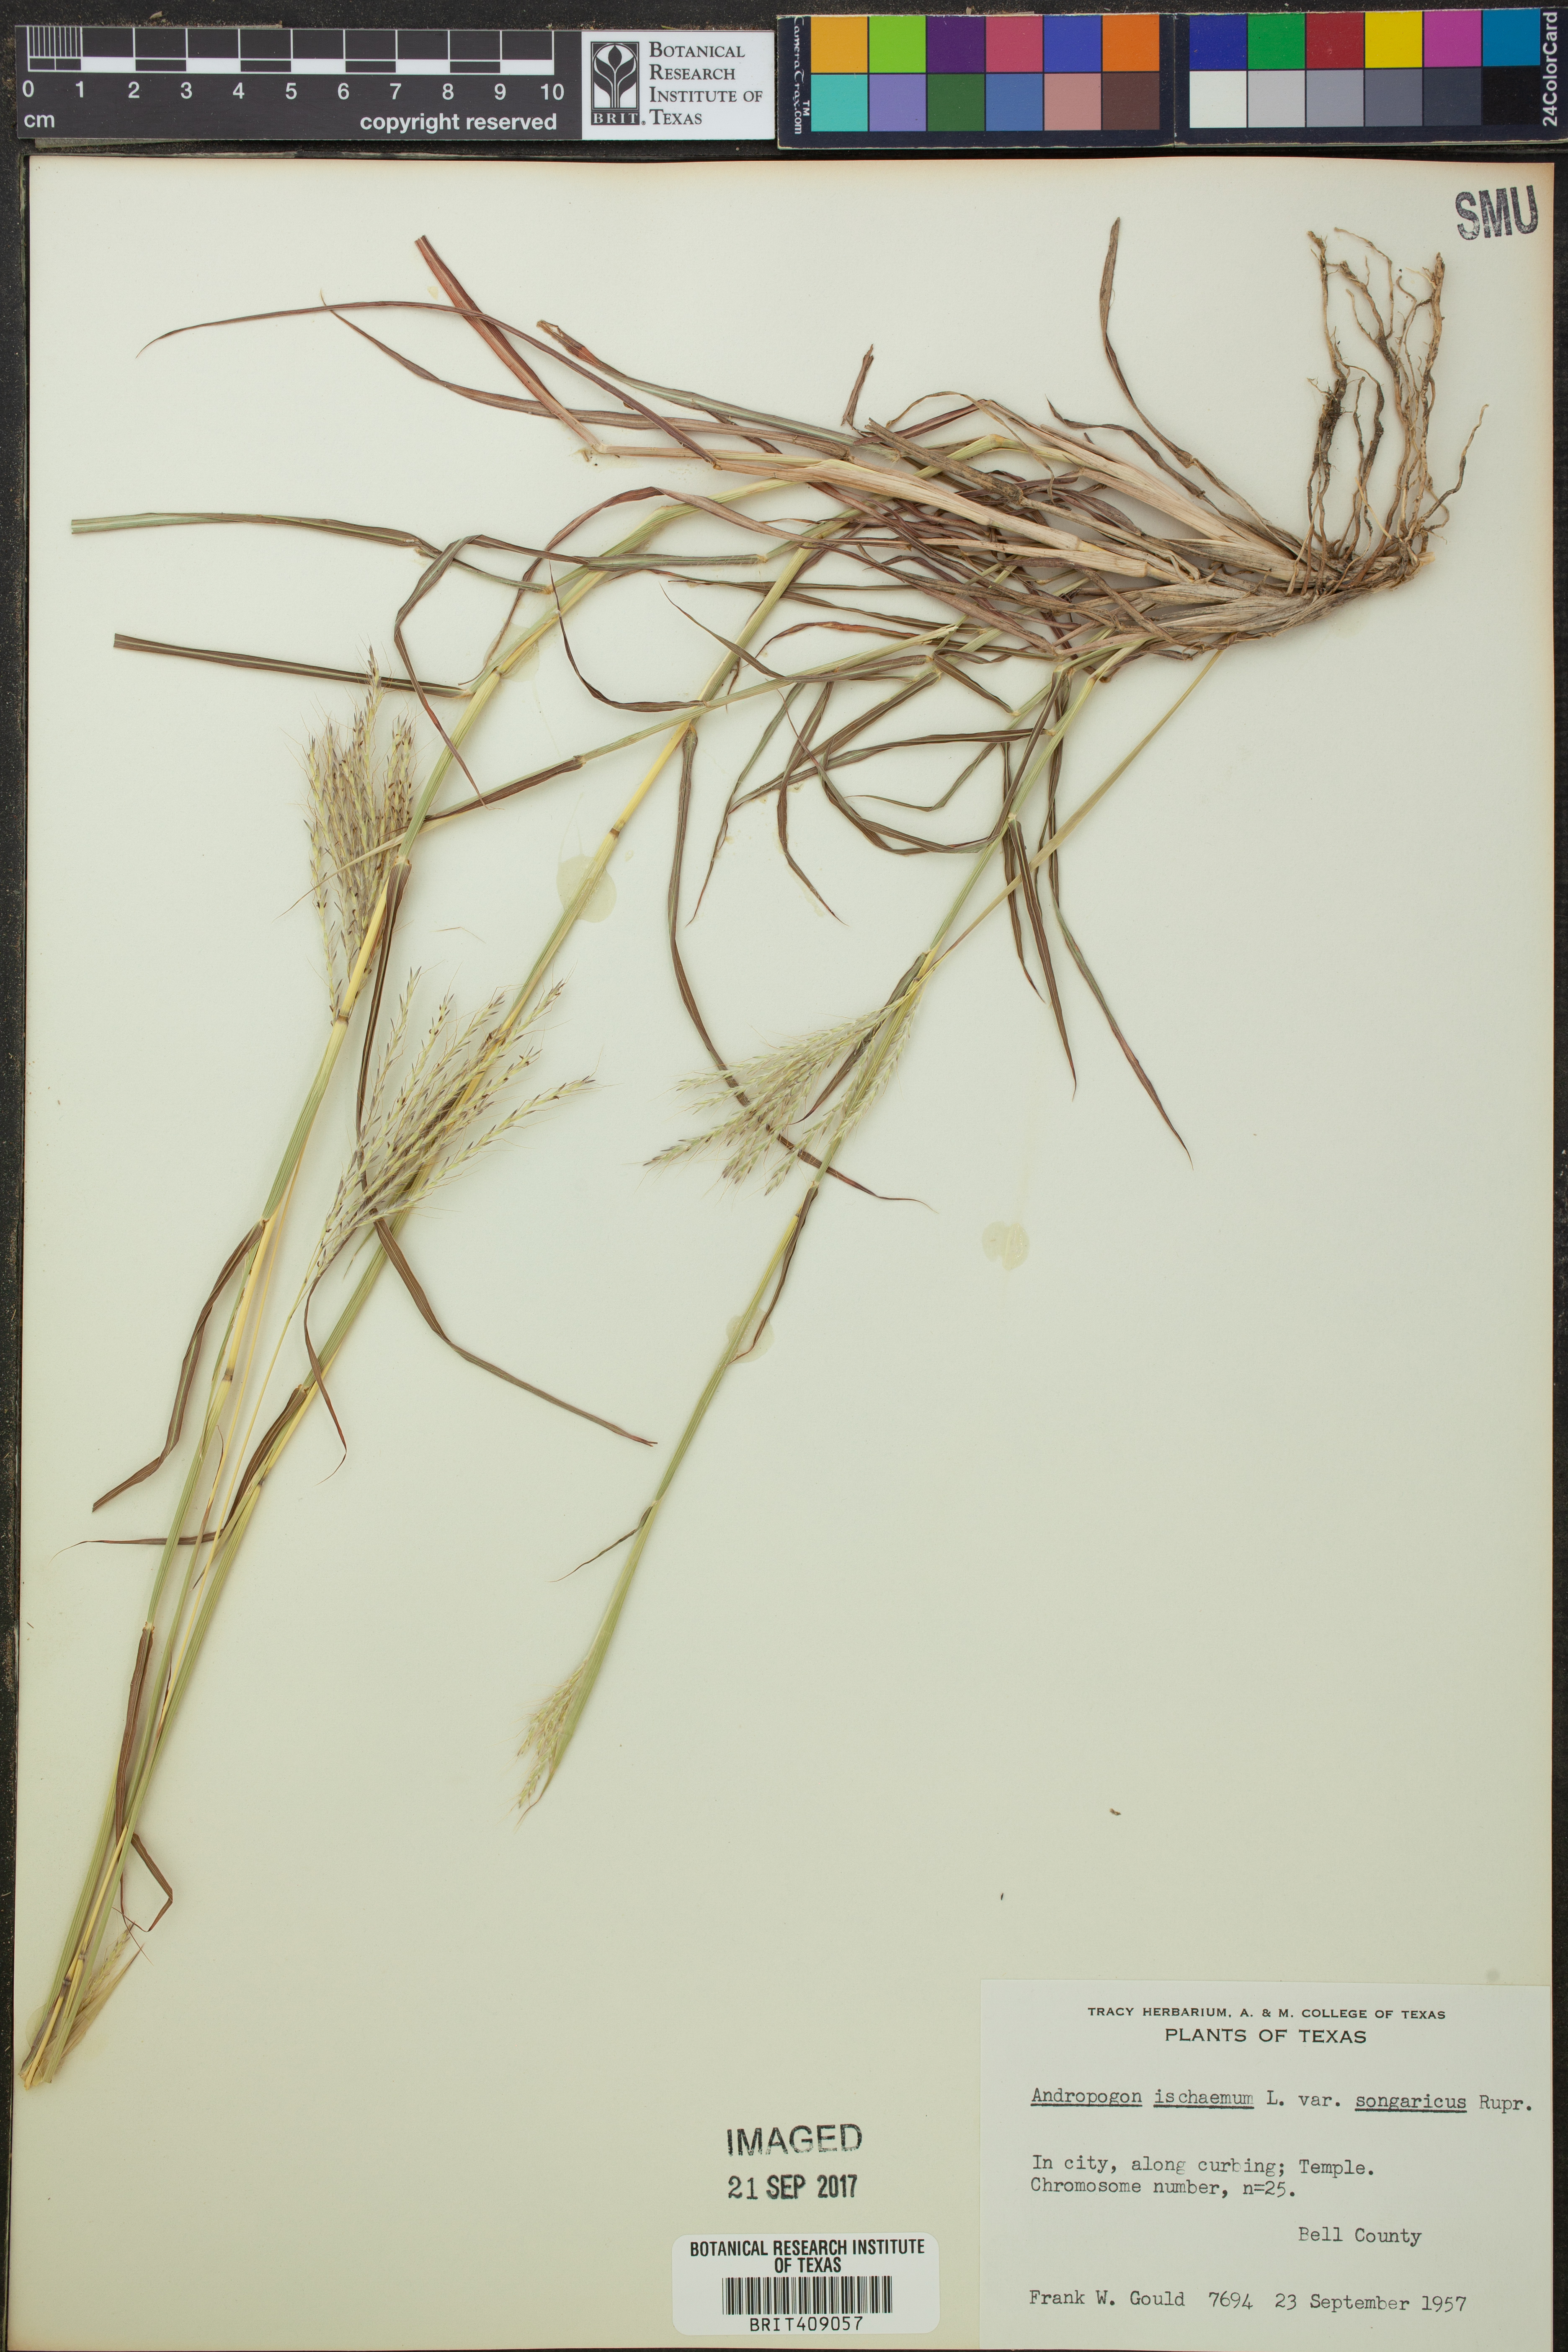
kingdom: Plantae
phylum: Tracheophyta
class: Liliopsida
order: Poales
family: Poaceae
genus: Bothriochloa
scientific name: Bothriochloa ischaemum
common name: Yellow bluestem
